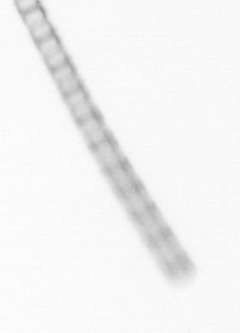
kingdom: Chromista
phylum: Ochrophyta
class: Bacillariophyceae
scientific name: Bacillariophyceae
